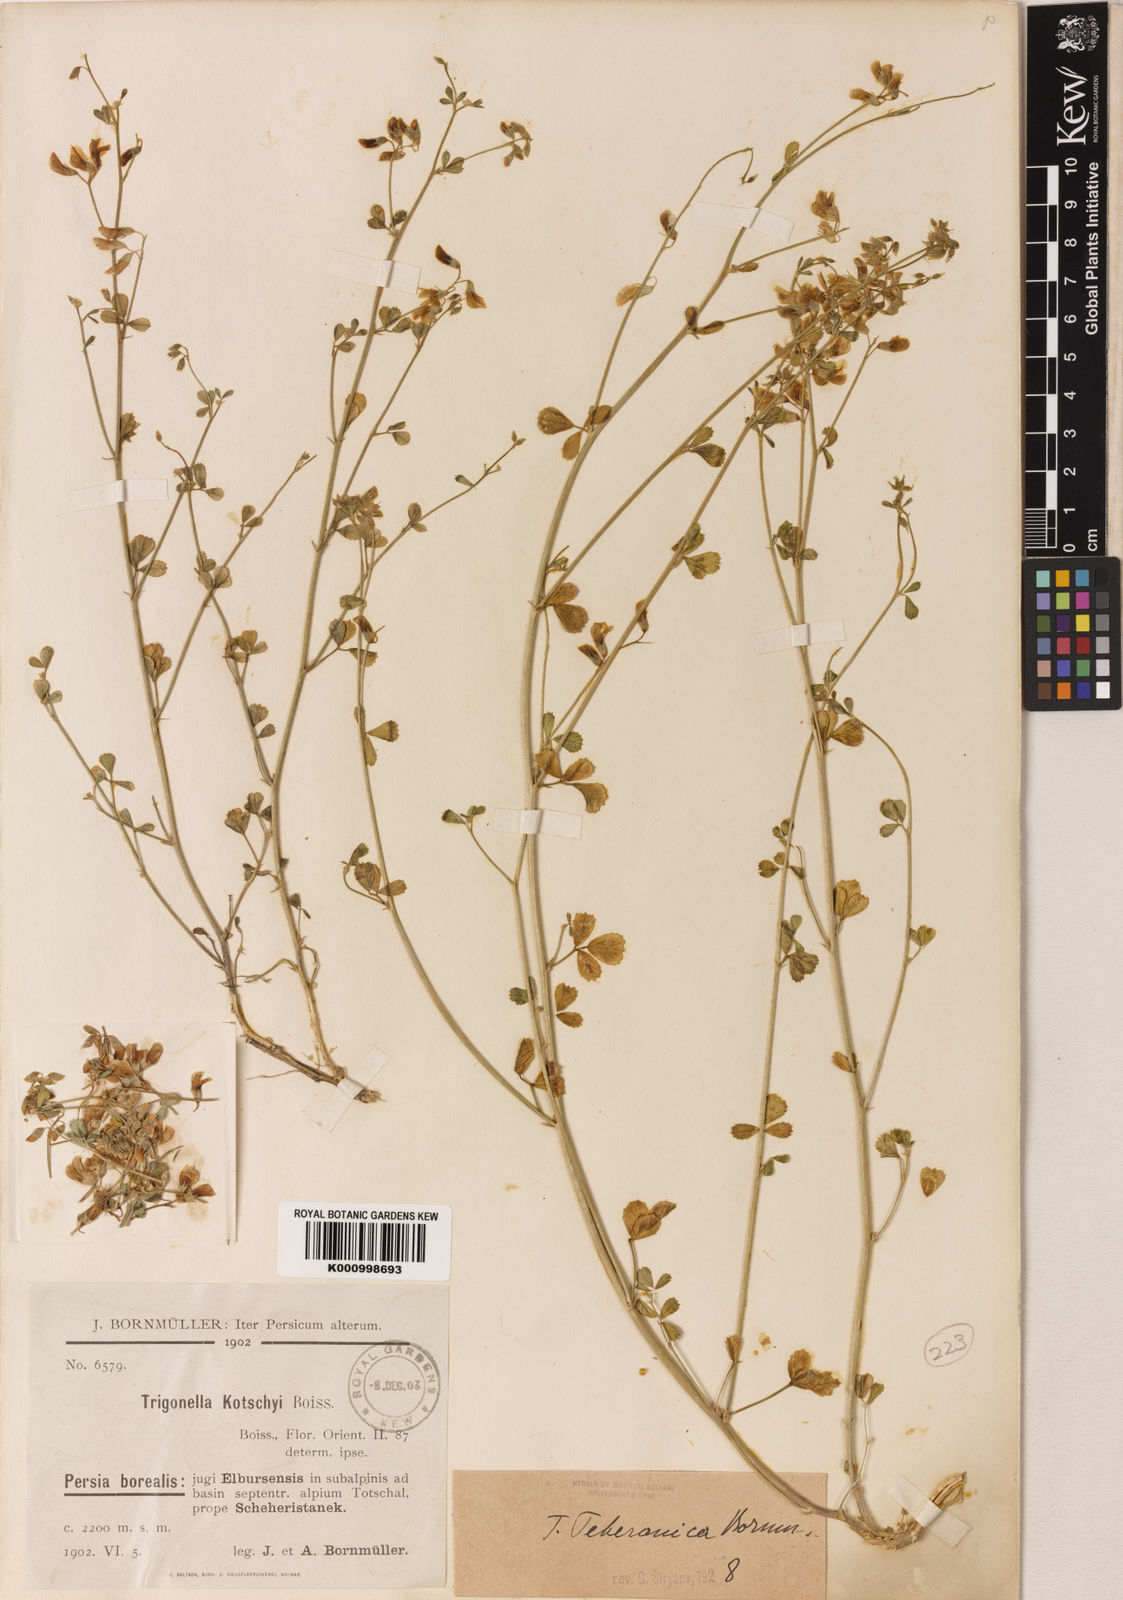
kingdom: Plantae
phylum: Tracheophyta
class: Magnoliopsida
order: Fabales
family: Fabaceae
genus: Trigonella
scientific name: Trigonella teheranica
